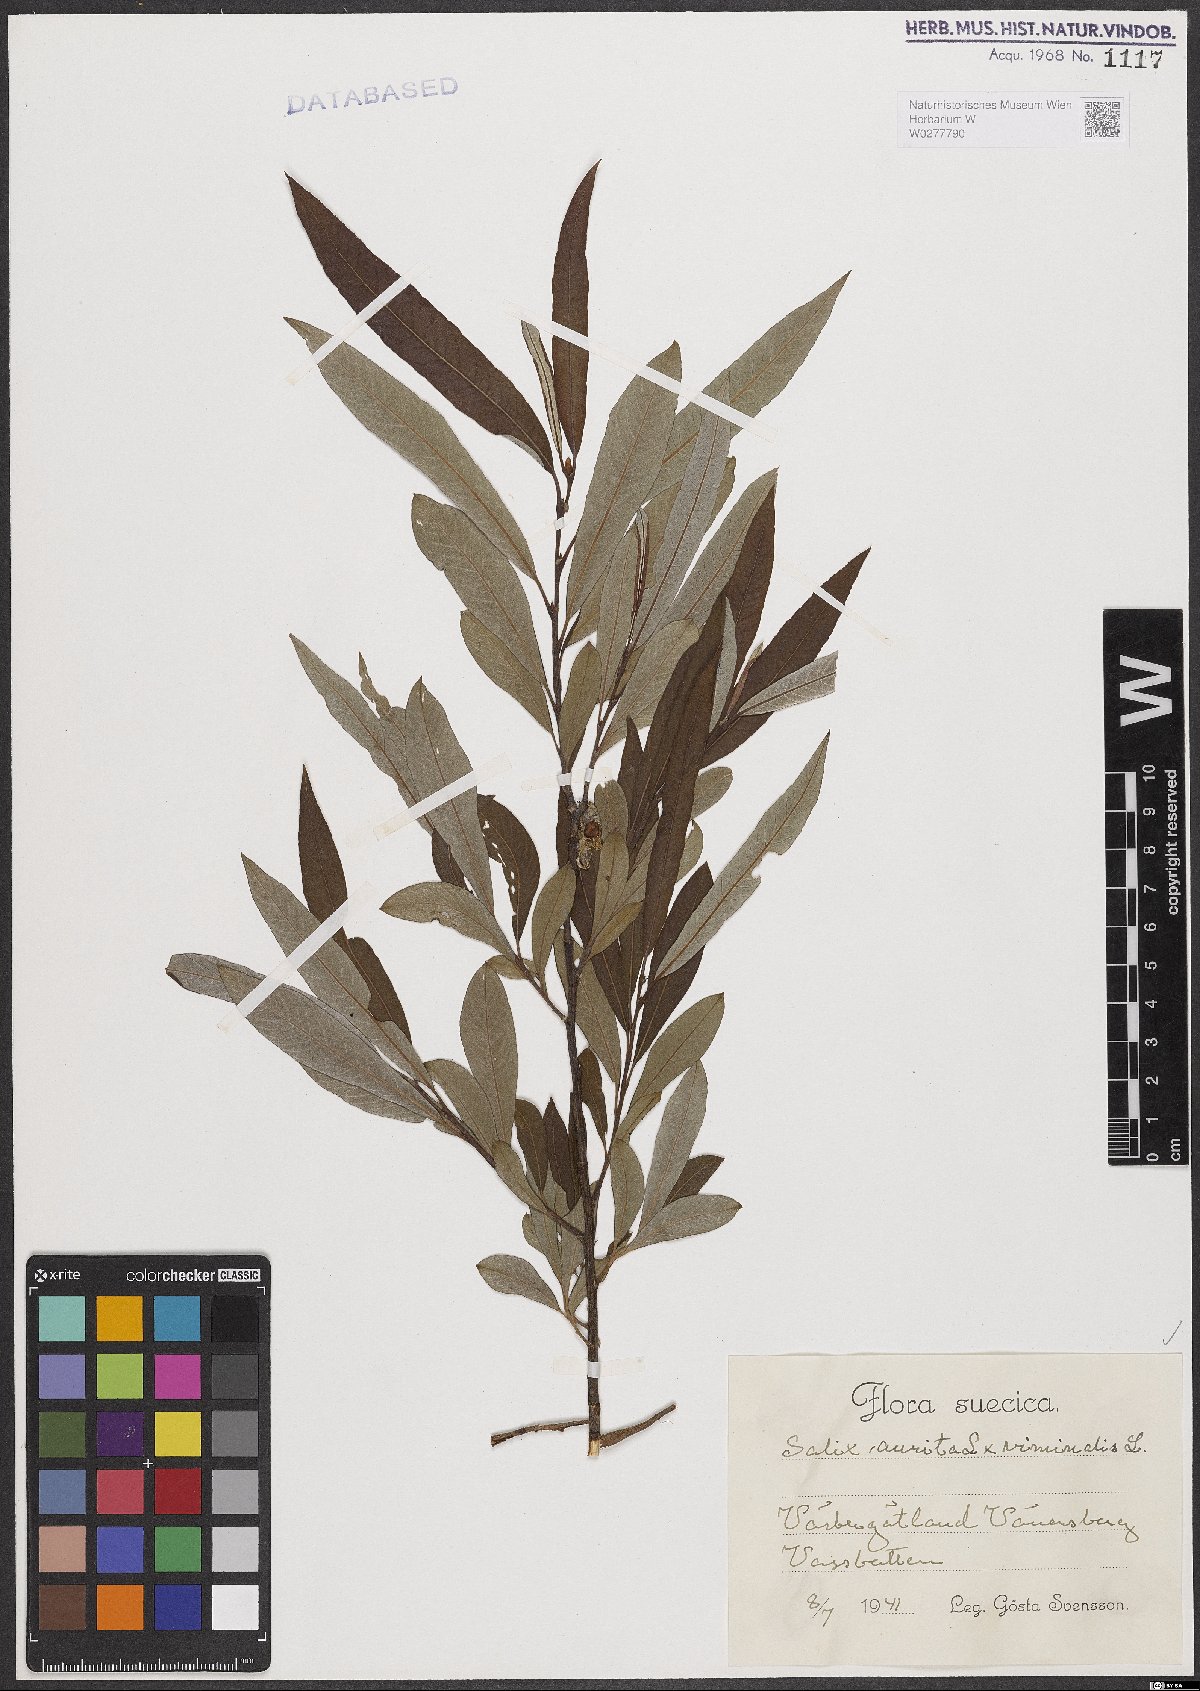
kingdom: Plantae
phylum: Tracheophyta
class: Magnoliopsida
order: Malpighiales
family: Salicaceae
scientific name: Salicaceae
